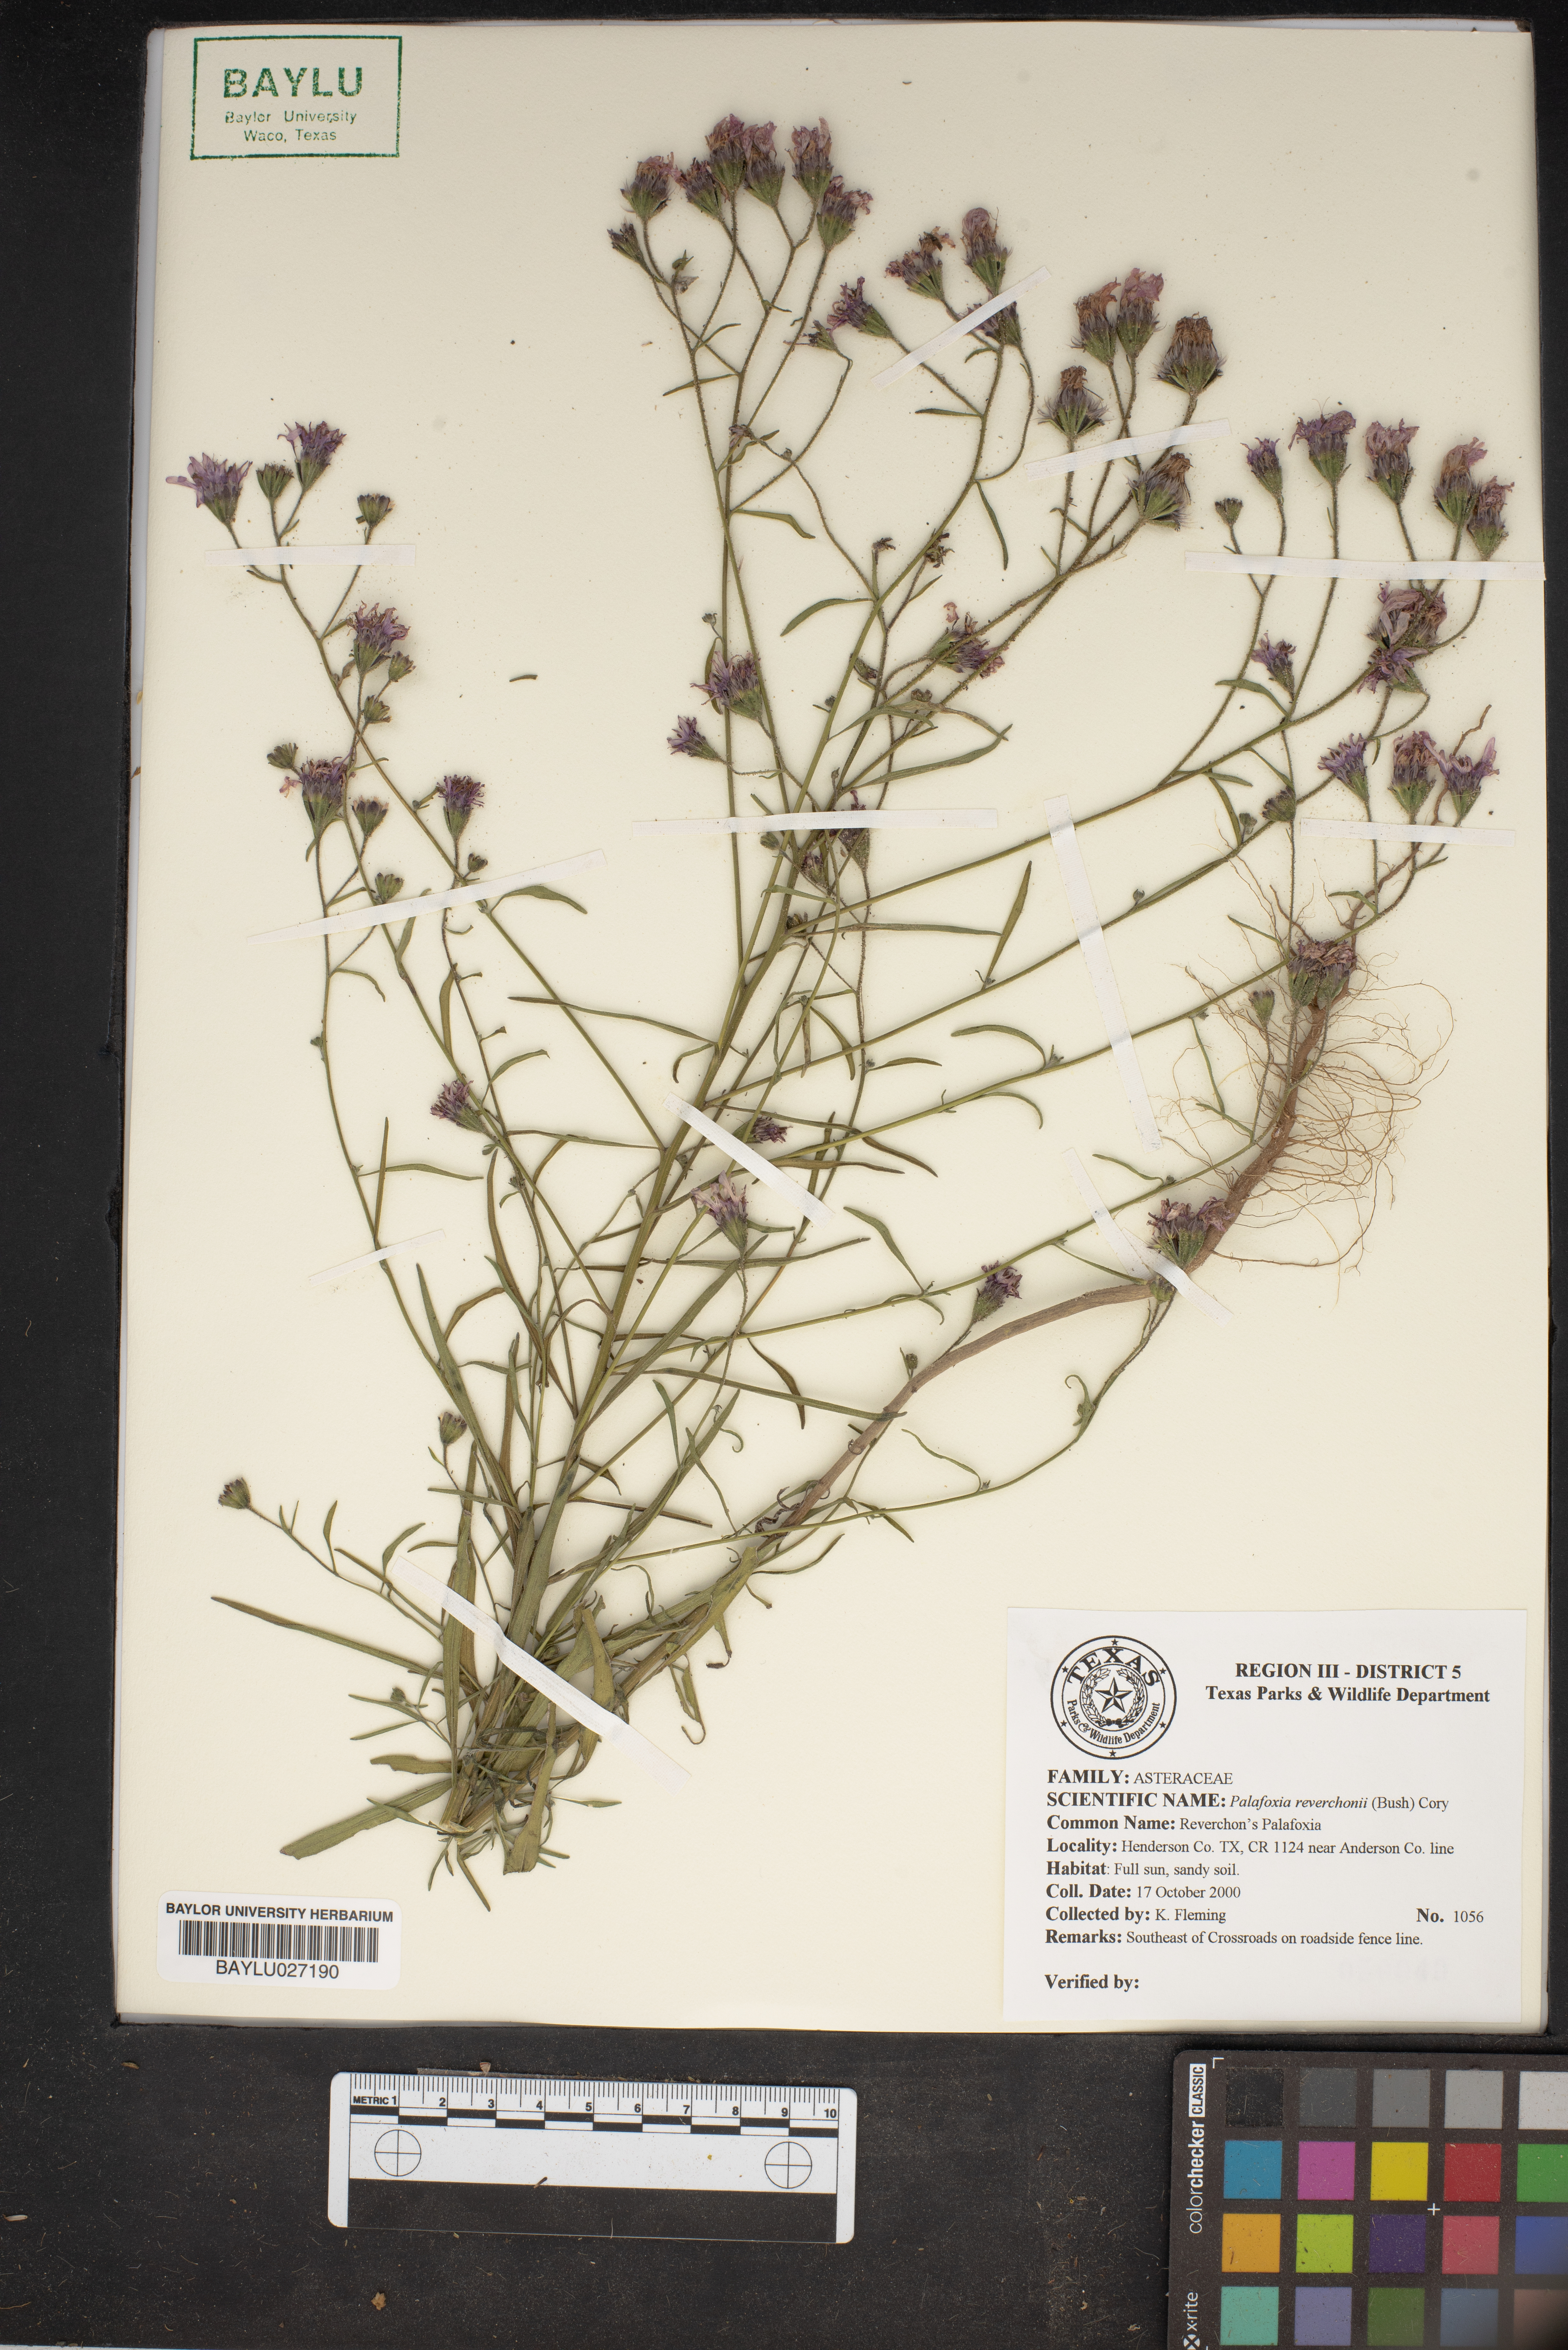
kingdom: Plantae
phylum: Tracheophyta
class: Magnoliopsida
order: Asterales
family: Asteraceae
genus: Palafoxia
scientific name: Palafoxia reverchonii
